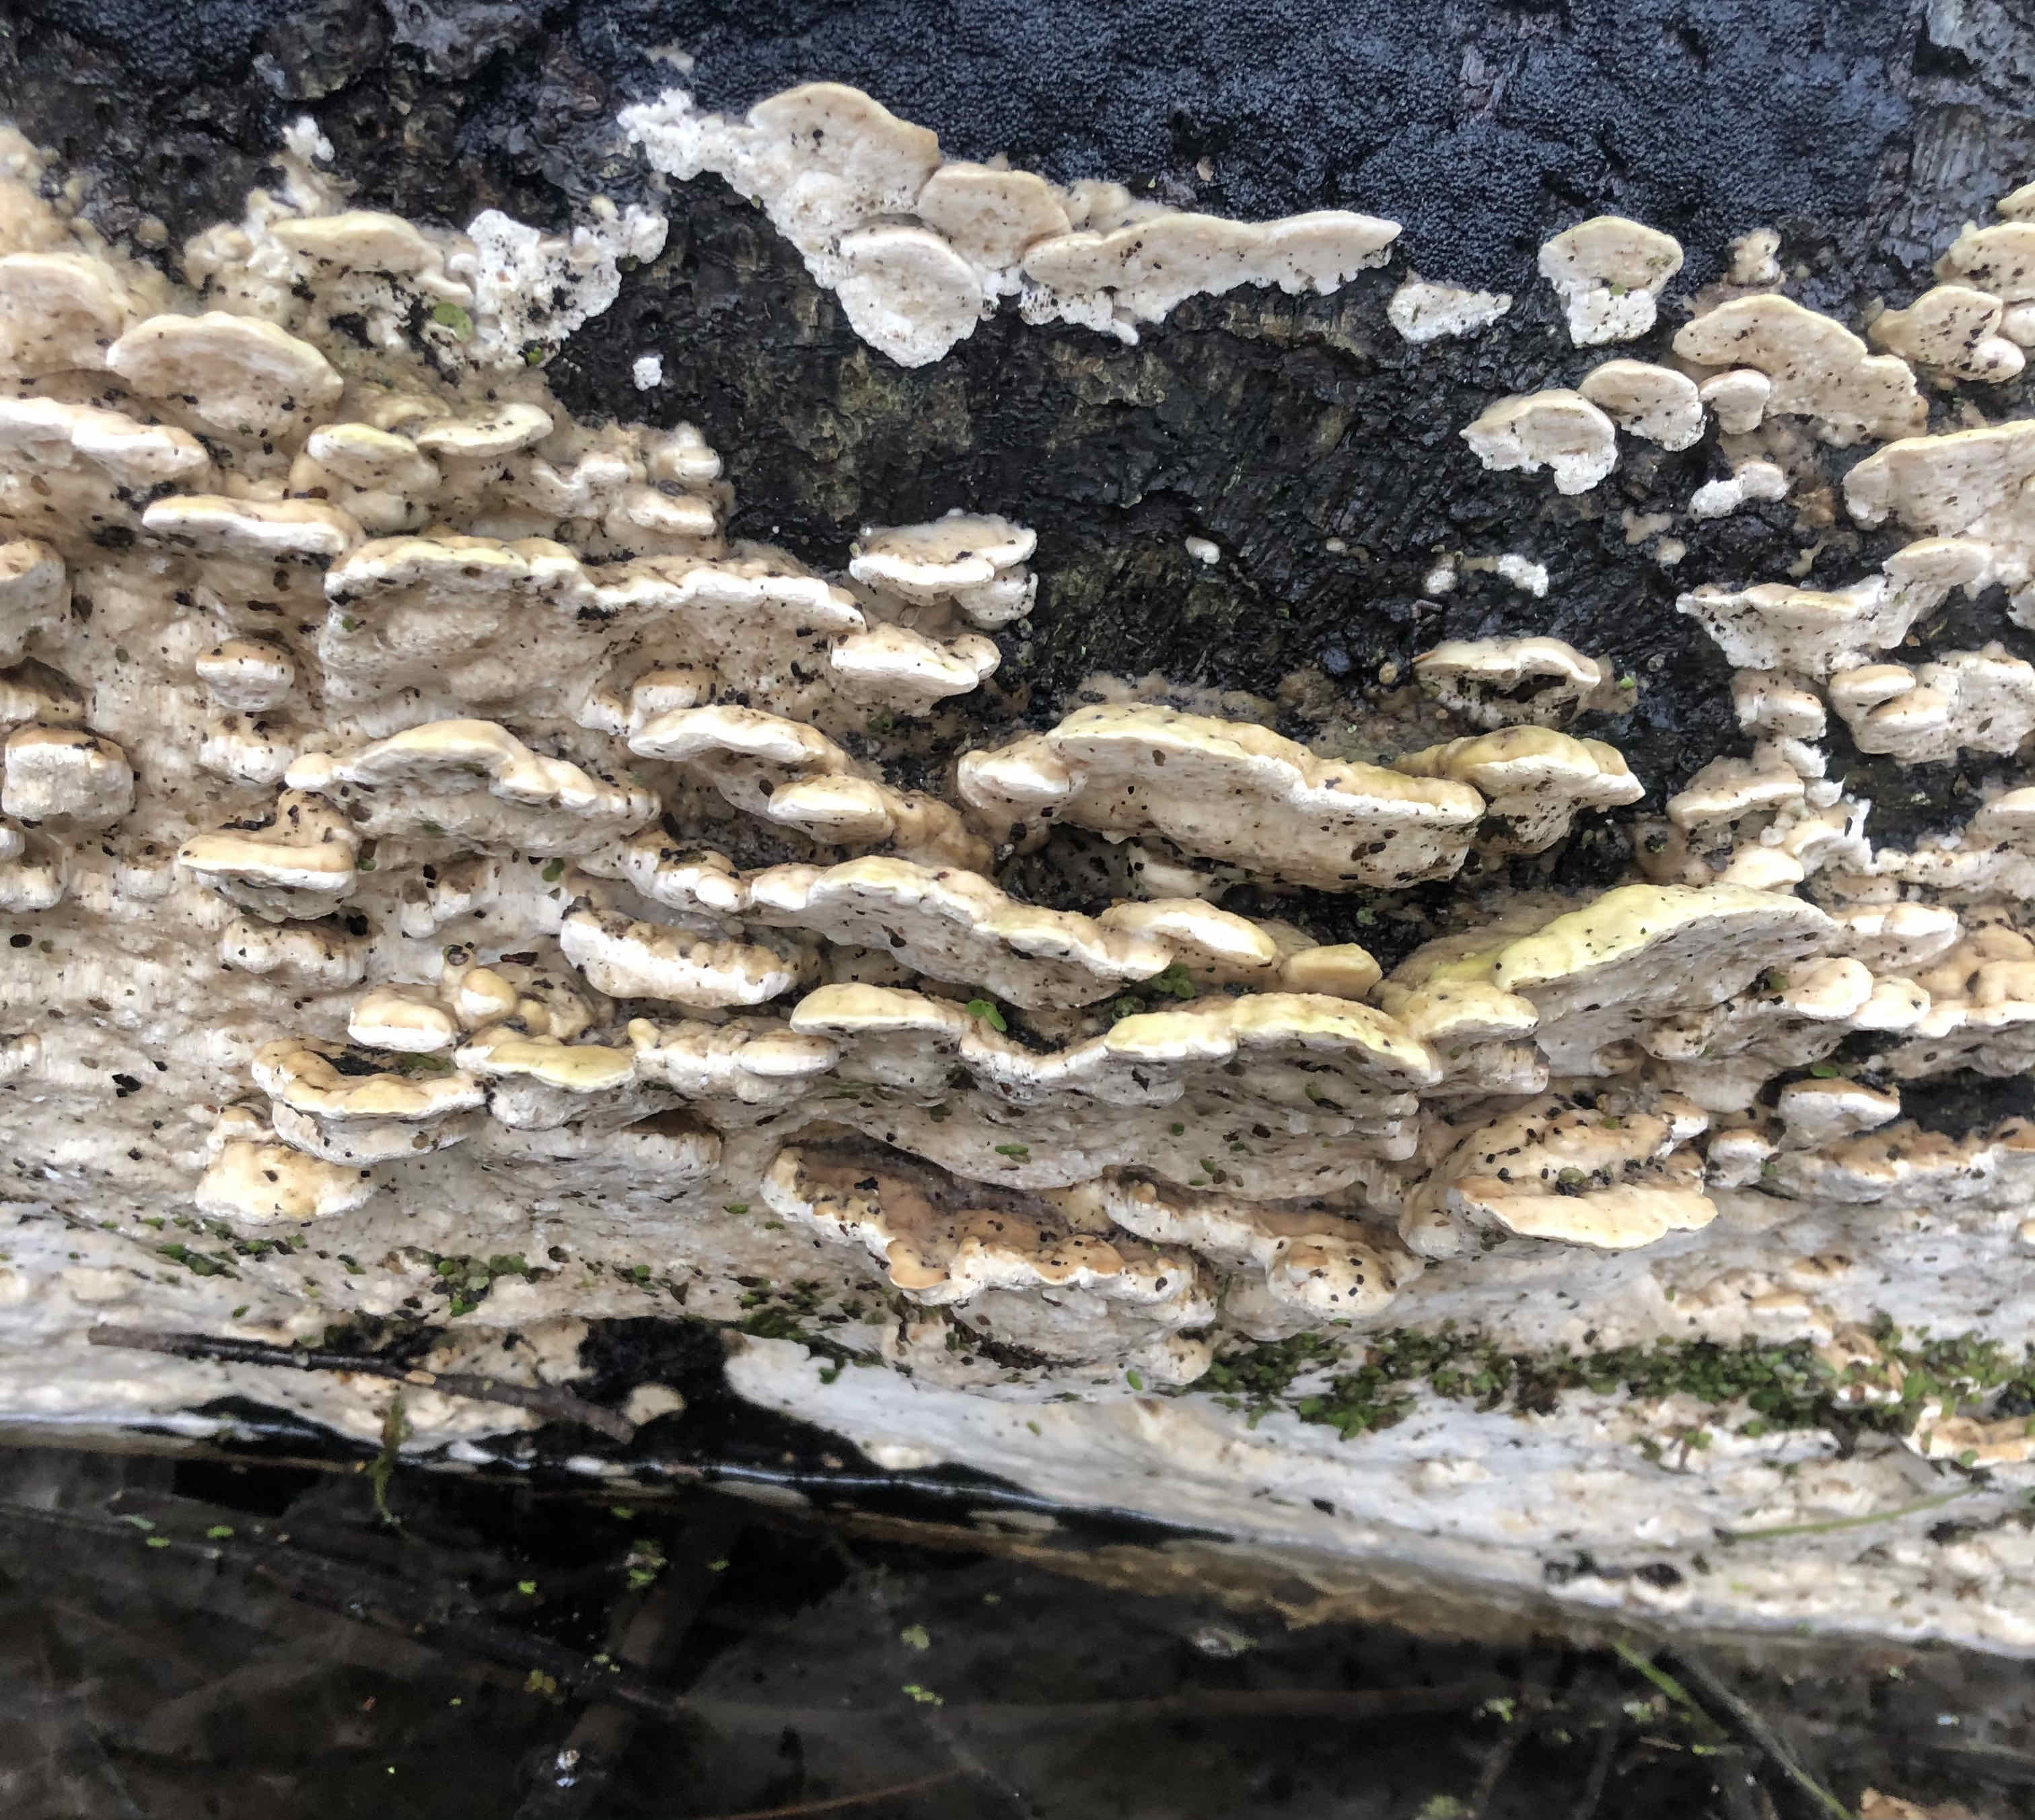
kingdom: Fungi
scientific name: Fungi
